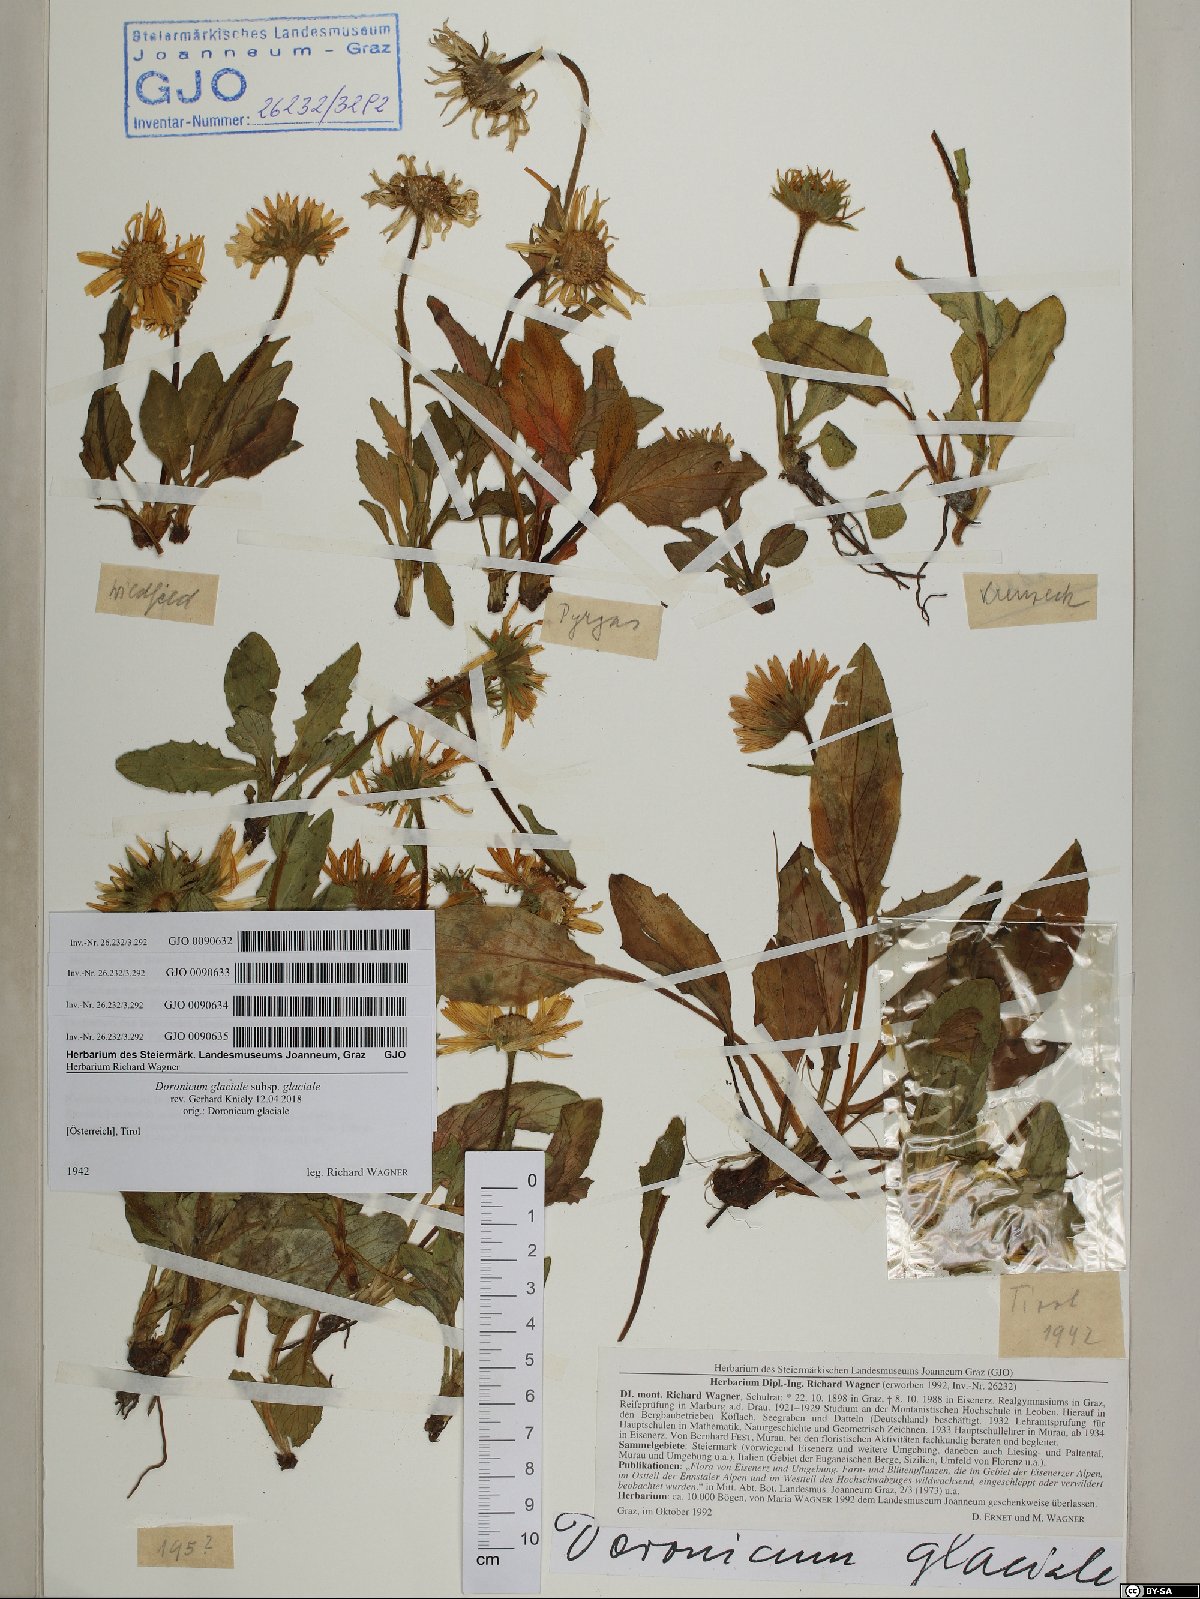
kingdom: Plantae
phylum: Tracheophyta
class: Magnoliopsida
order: Asterales
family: Asteraceae
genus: Doronicum
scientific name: Doronicum glaciale
